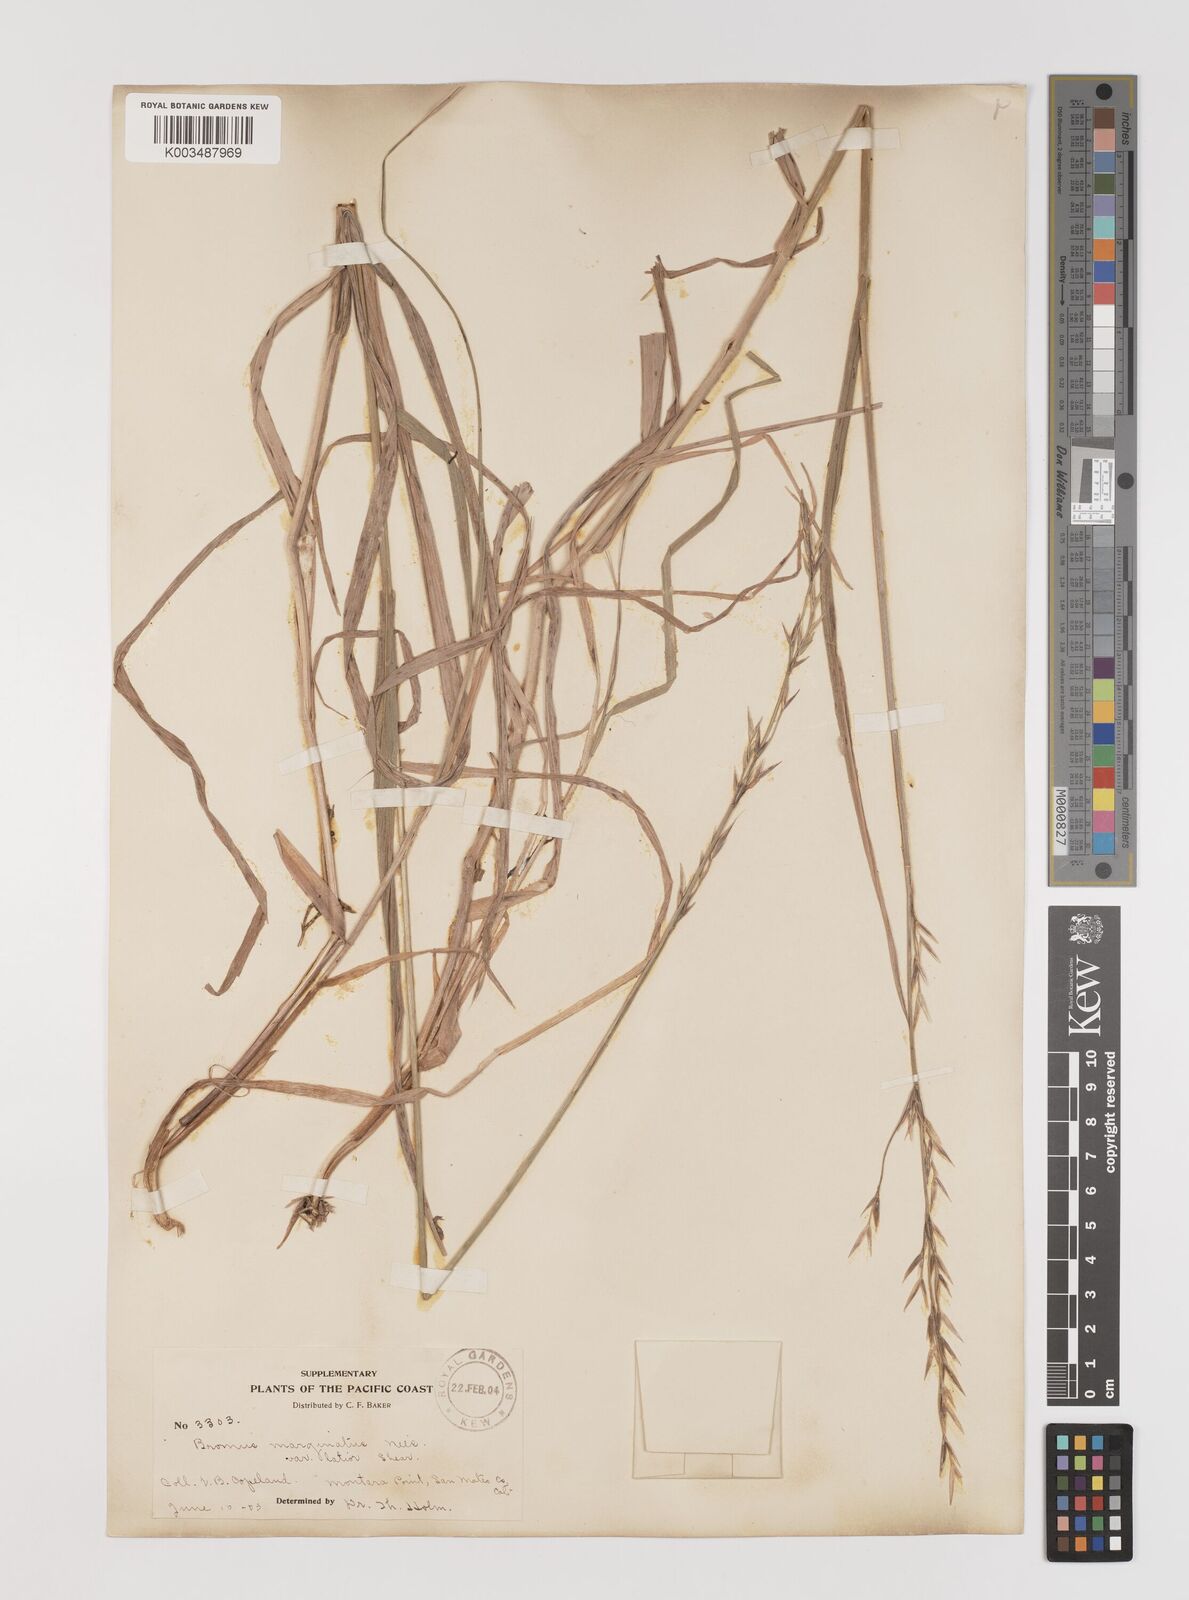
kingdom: Plantae
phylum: Tracheophyta
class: Liliopsida
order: Poales
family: Poaceae
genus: Bromus
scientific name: Bromus marginatus
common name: Western brome
